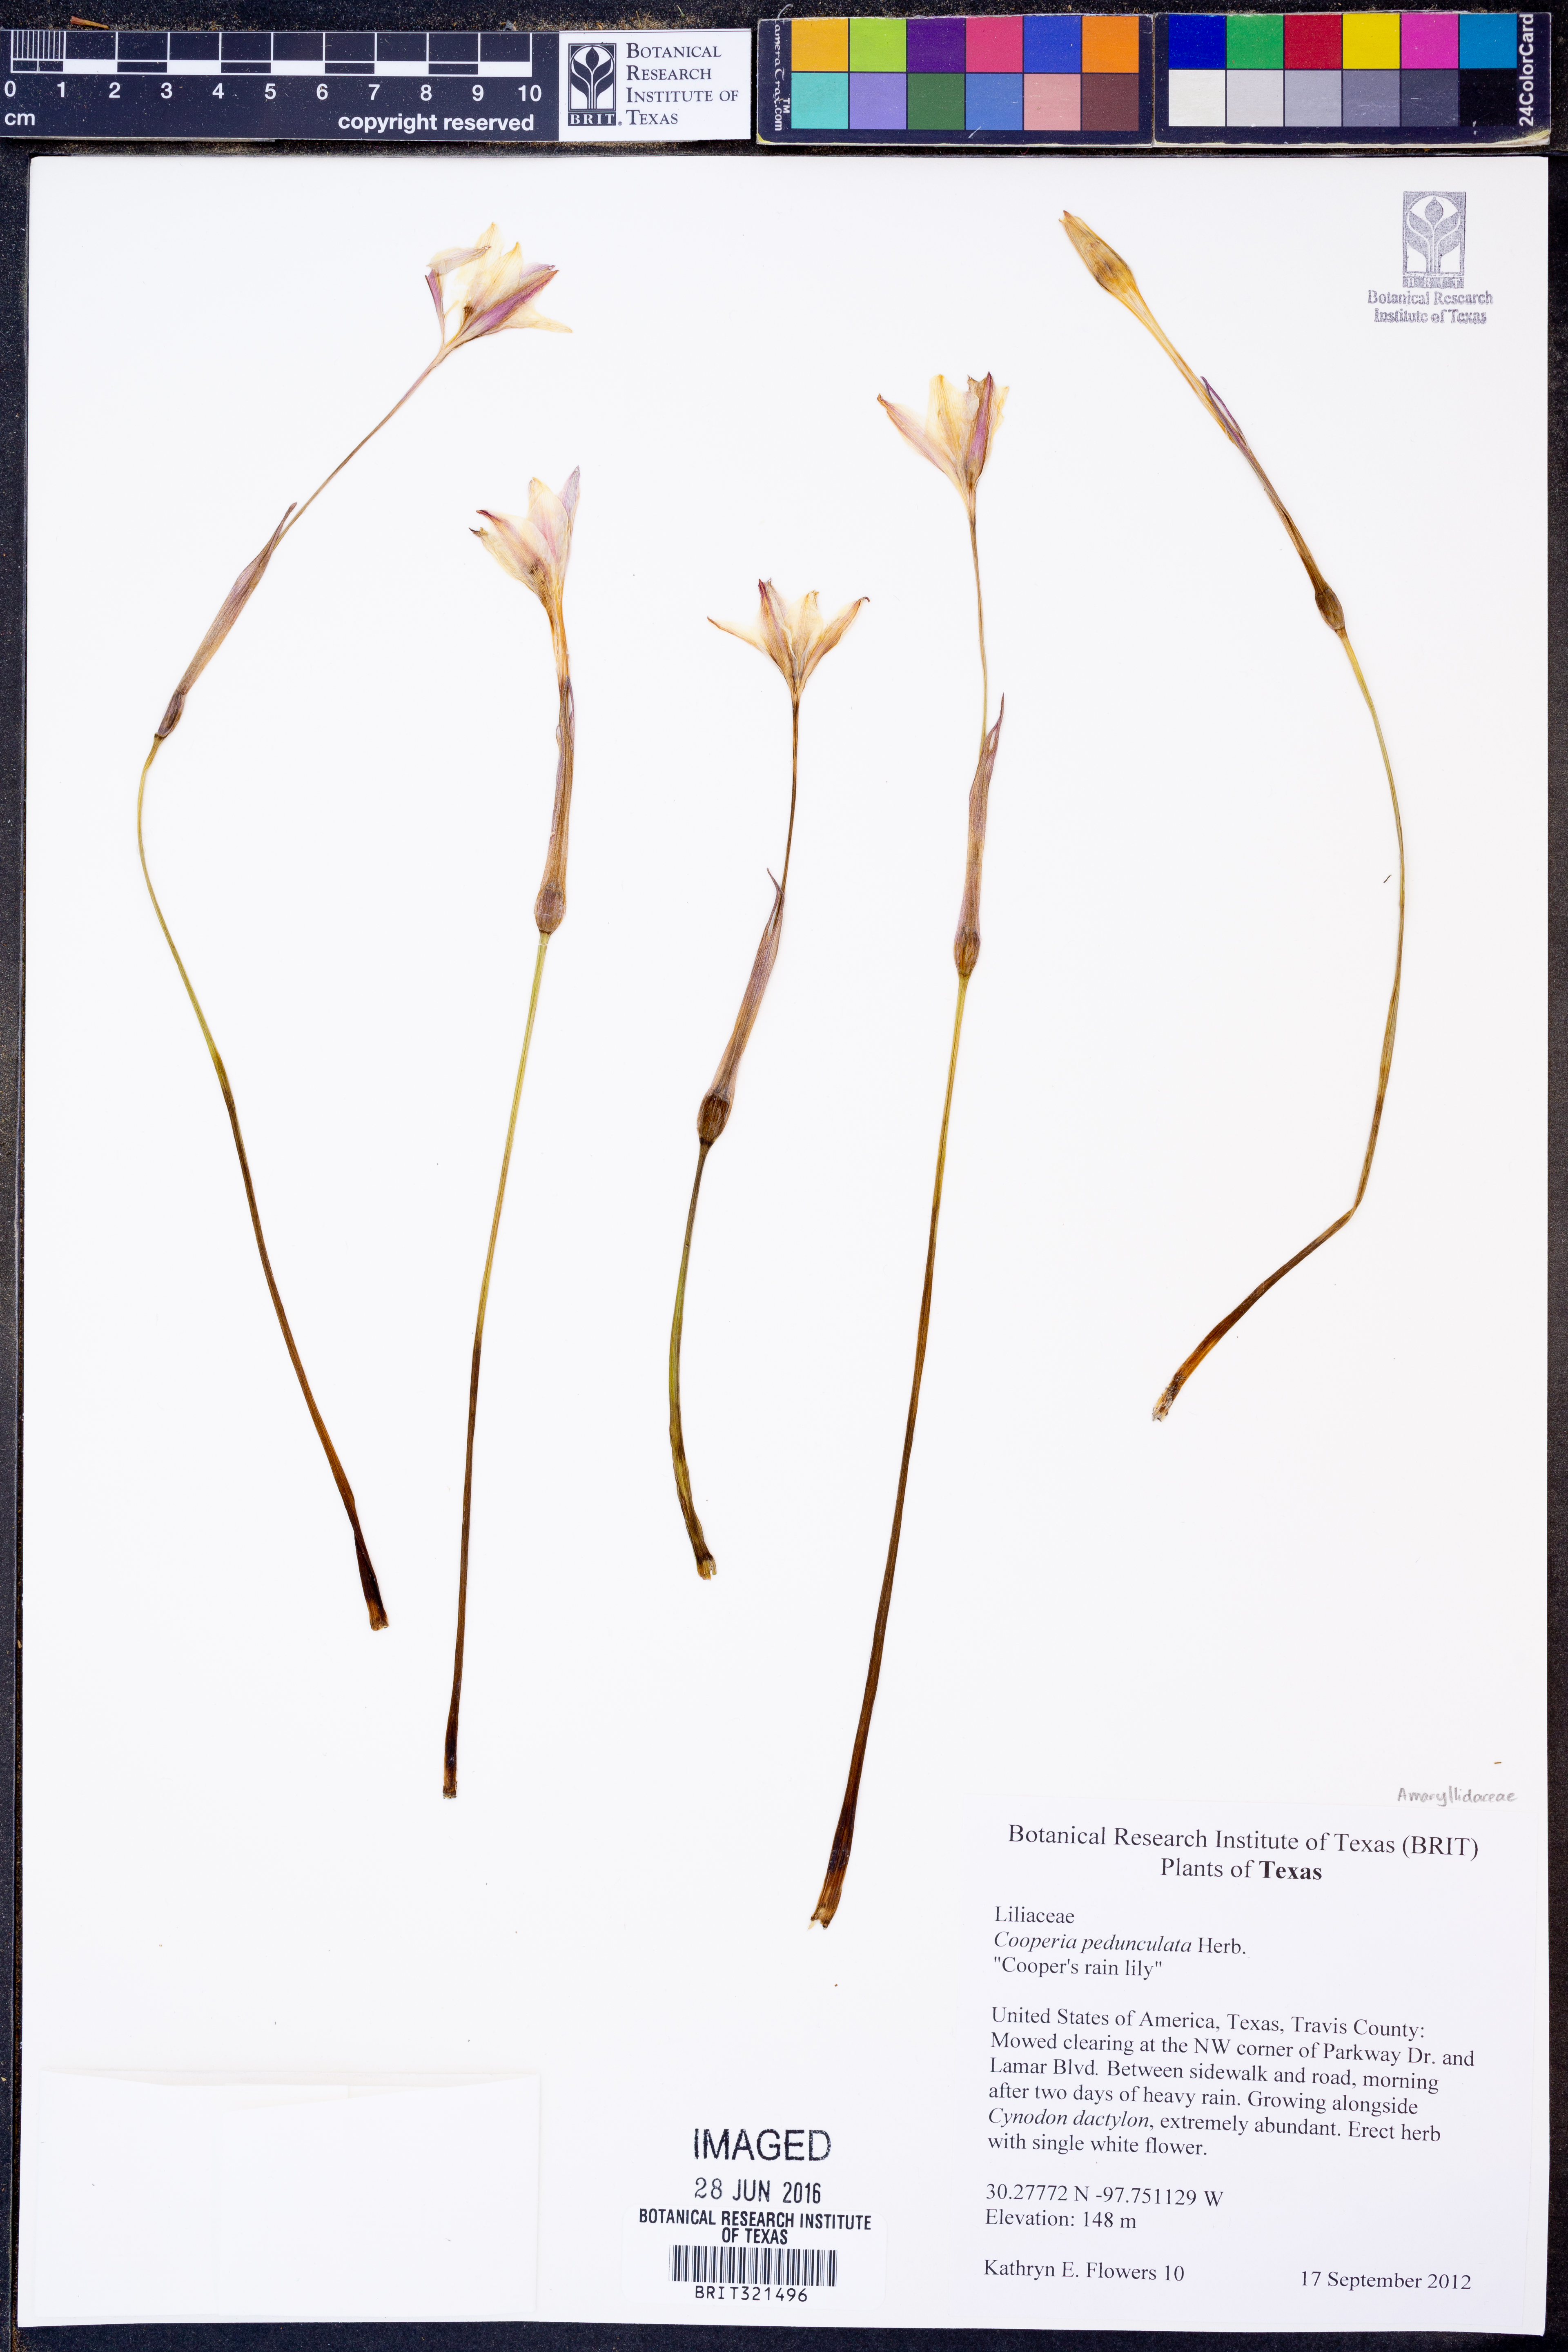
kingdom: Plantae
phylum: Tracheophyta
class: Liliopsida
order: Asparagales
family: Amaryllidaceae
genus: Zephyranthes
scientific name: Zephyranthes drummondii
